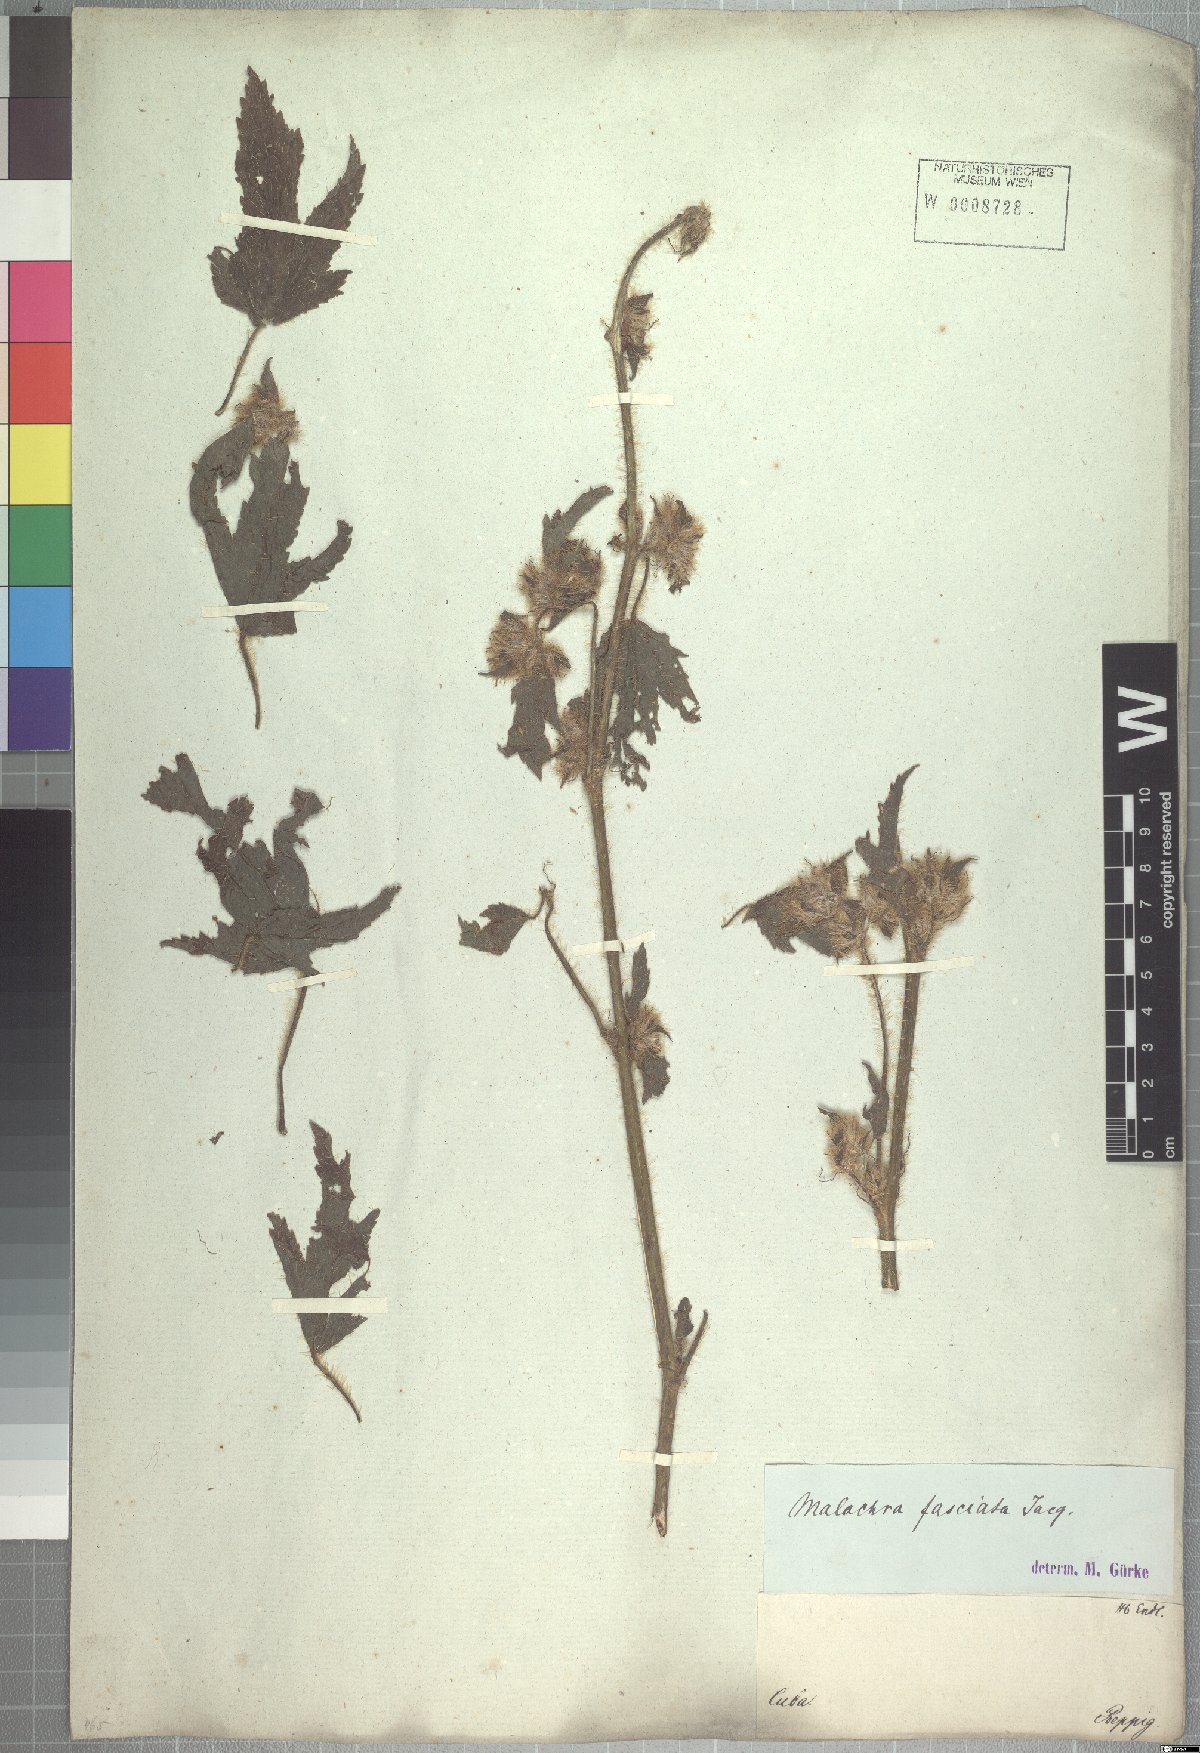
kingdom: Plantae
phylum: Tracheophyta
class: Magnoliopsida
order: Malvales
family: Malvaceae
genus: Malachra
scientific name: Malachra fasciata
